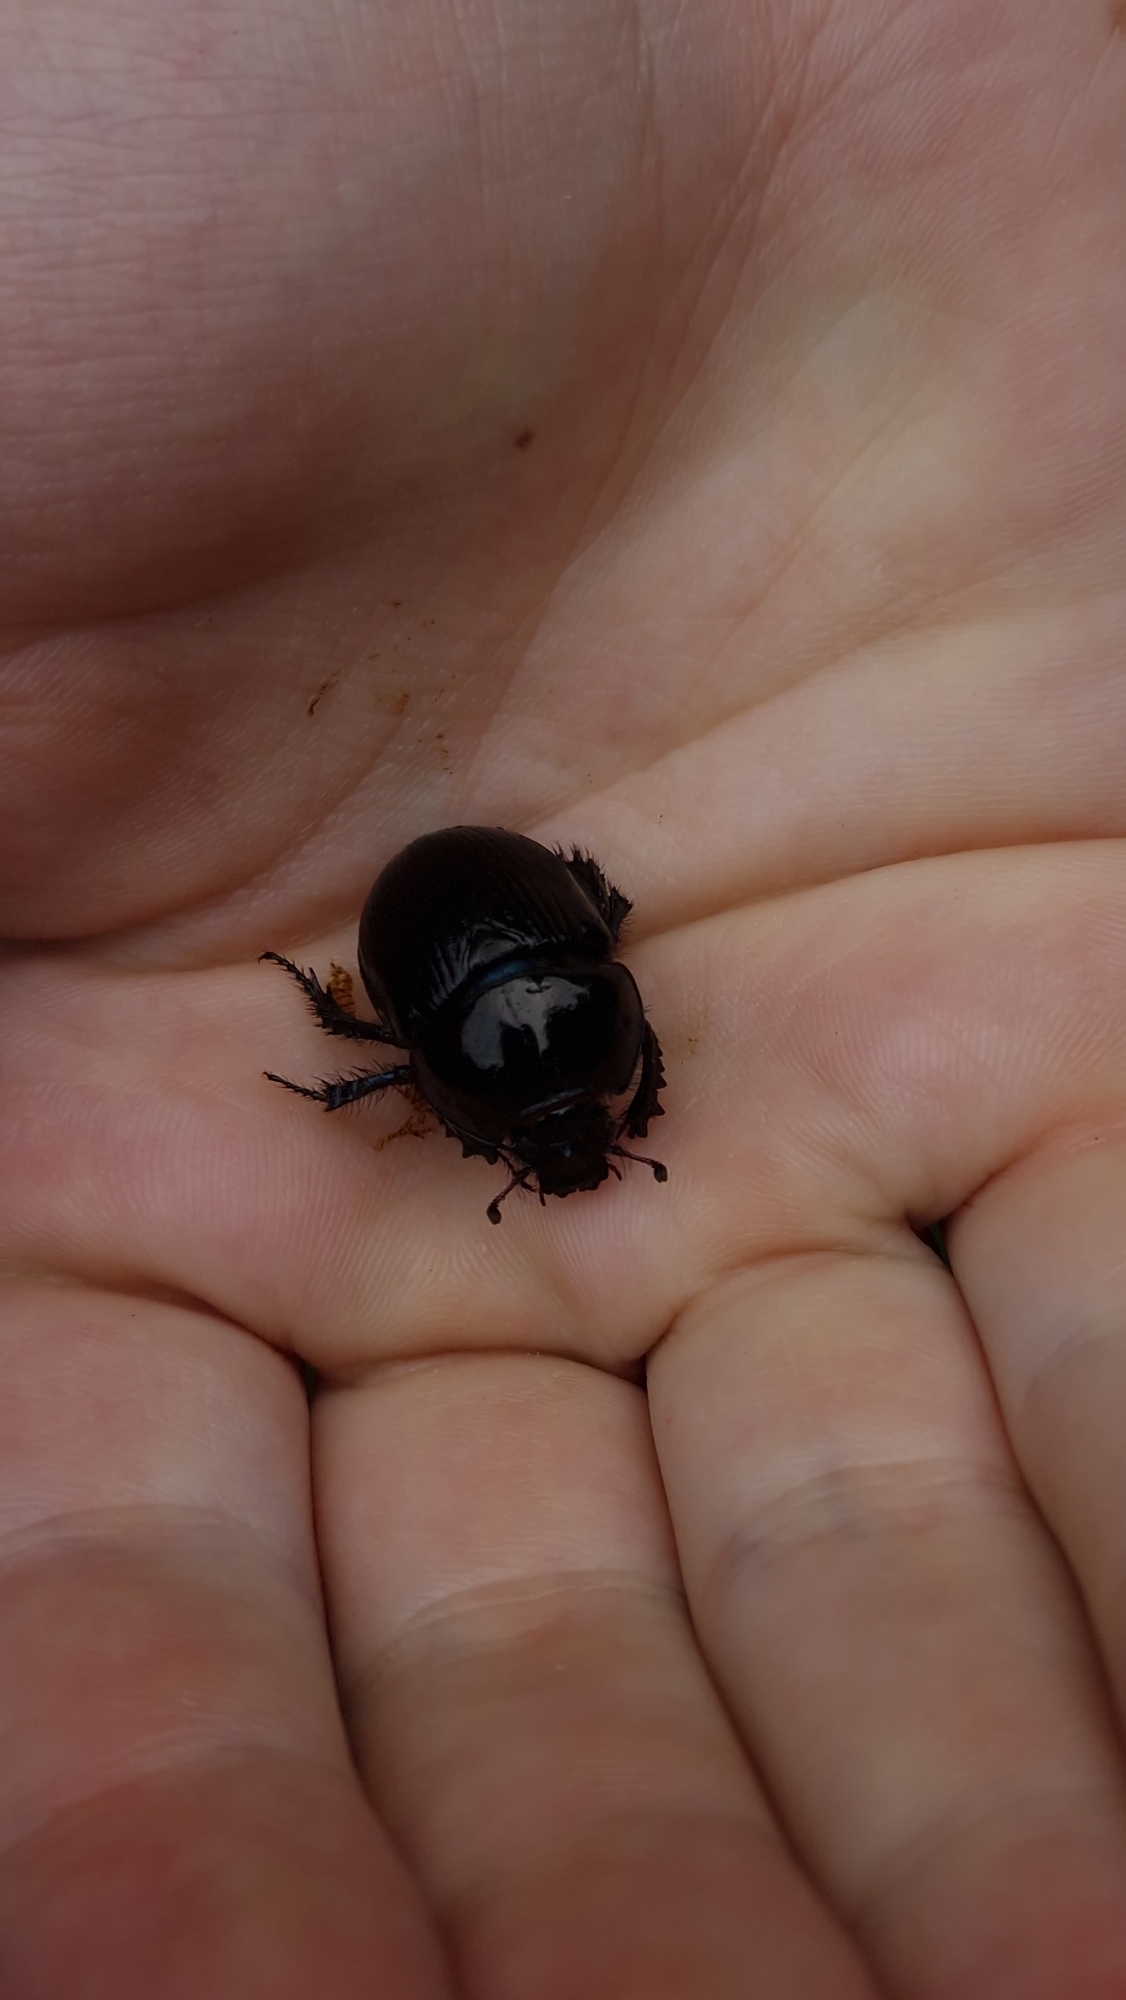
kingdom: Animalia
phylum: Arthropoda
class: Insecta
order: Coleoptera
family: Geotrupidae
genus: Anoplotrupes
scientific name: Anoplotrupes stercorosus
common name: Skovskarnbasse
